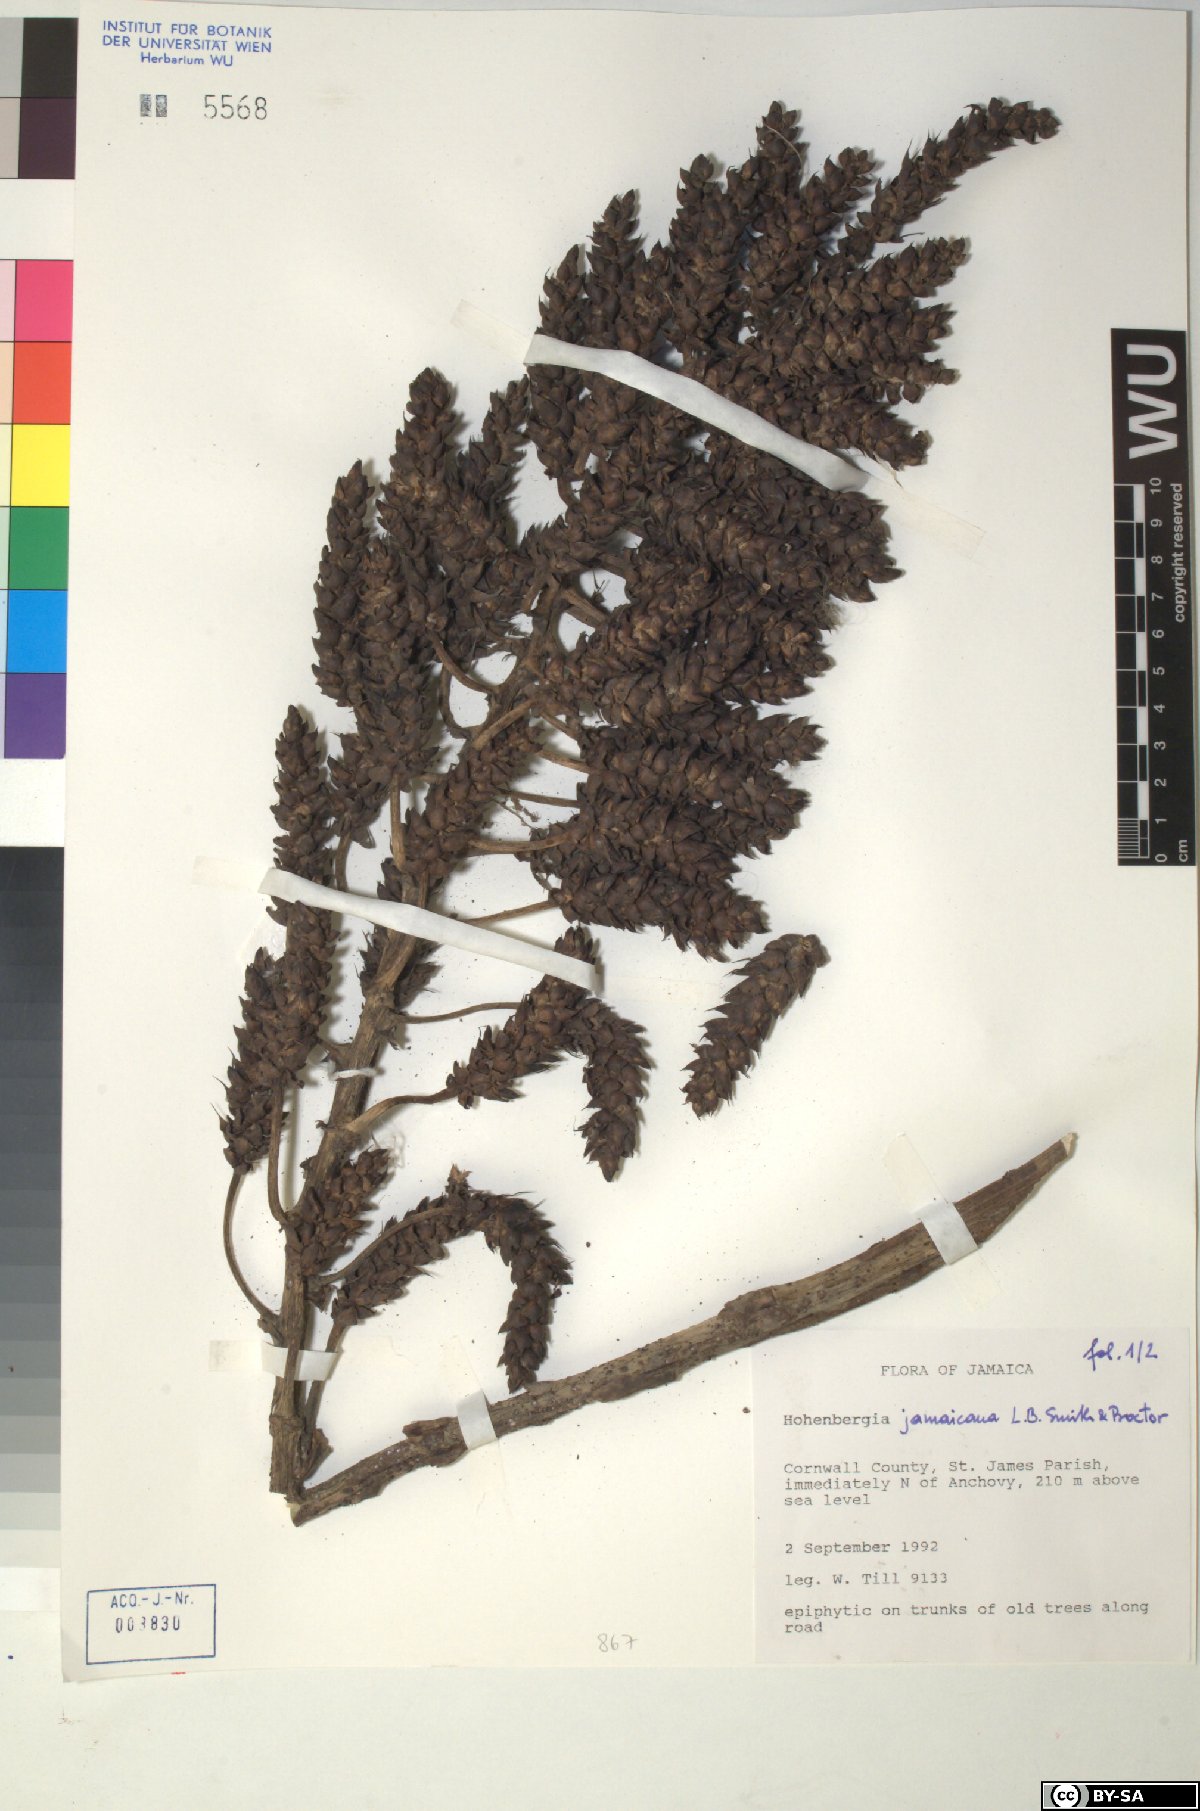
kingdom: Plantae
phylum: Tracheophyta
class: Liliopsida
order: Poales
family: Bromeliaceae
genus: Wittmackia
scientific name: Wittmackia jamaicana
